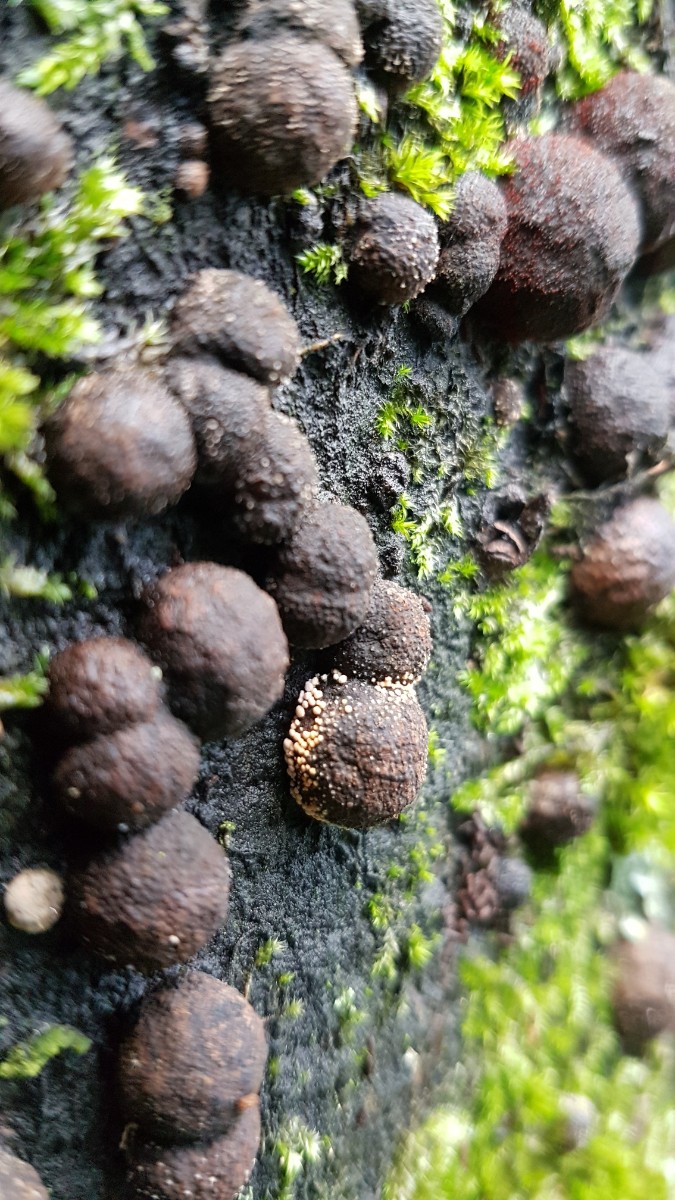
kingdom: Fungi
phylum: Ascomycota
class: Sordariomycetes
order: Xylariales
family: Hypoxylaceae
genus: Hypoxylon
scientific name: Hypoxylon fragiforme
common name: kuljordbær
